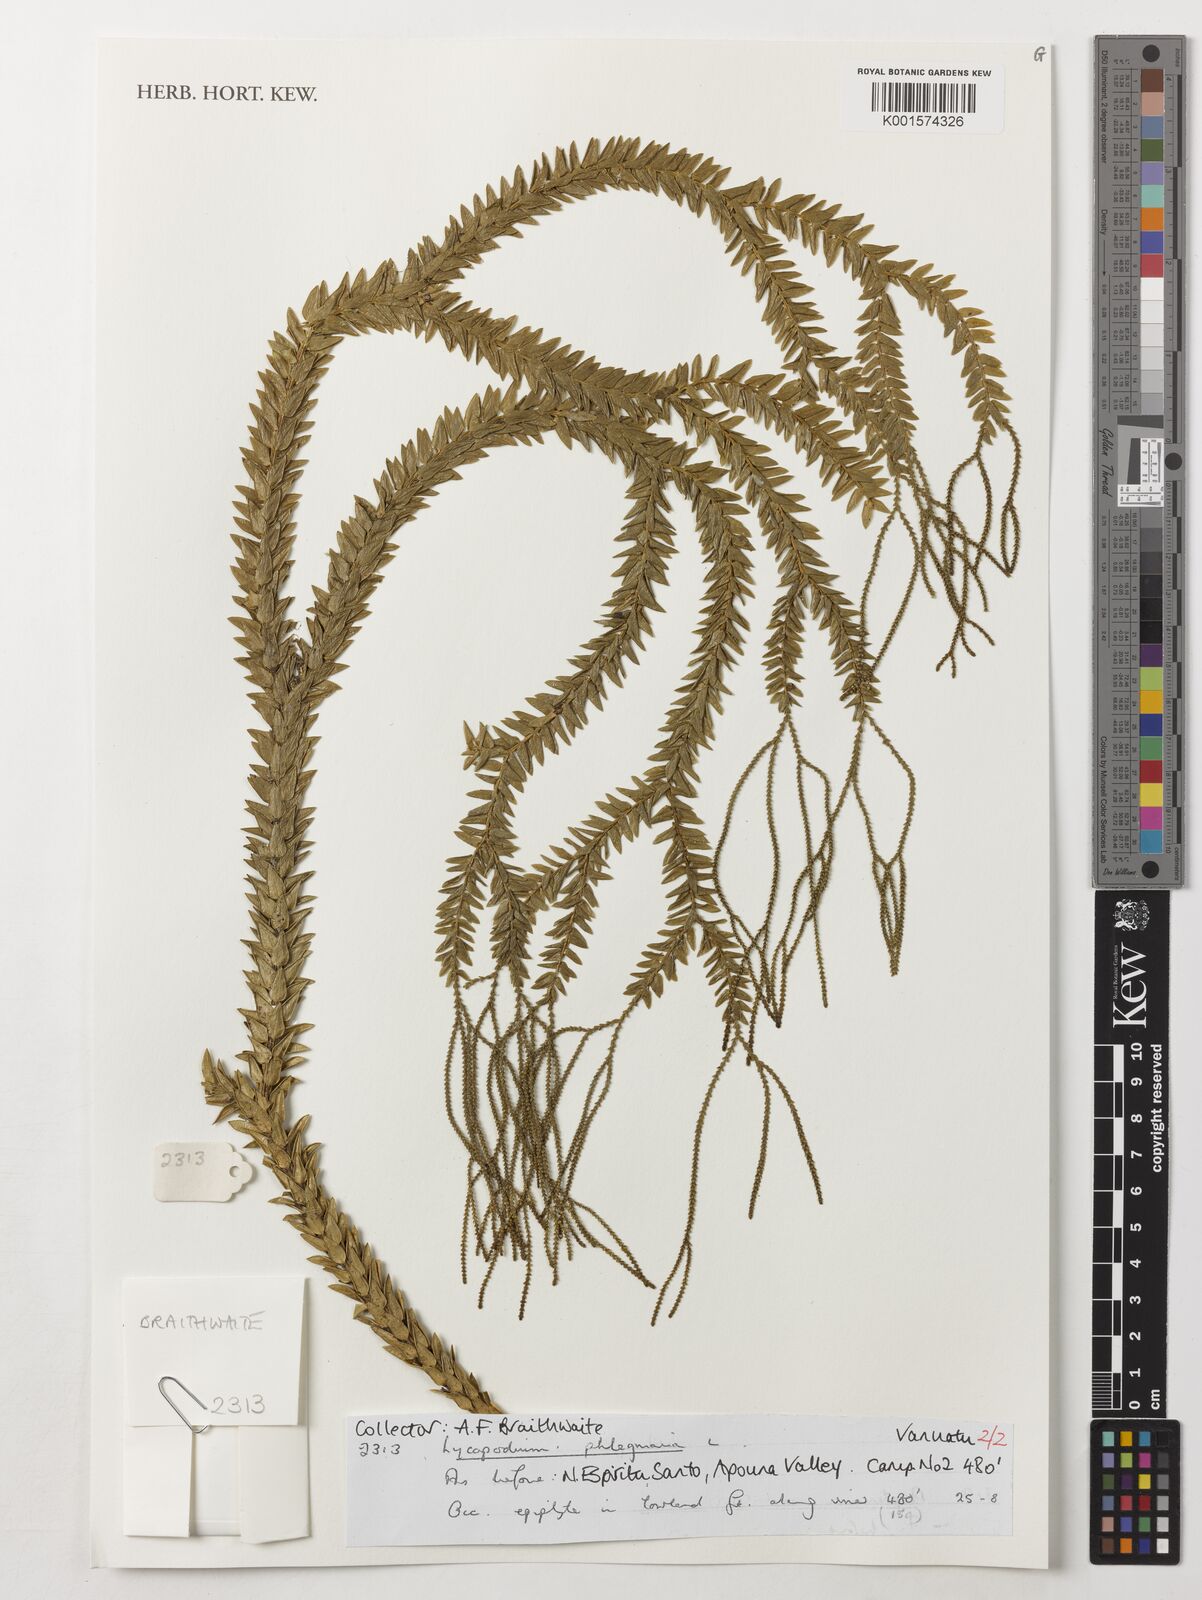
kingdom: Plantae
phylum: Tracheophyta
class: Lycopodiopsida
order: Lycopodiales
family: Lycopodiaceae
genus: Phlegmariurus
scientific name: Phlegmariurus phlegmaria
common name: Coarse tassel-fern
